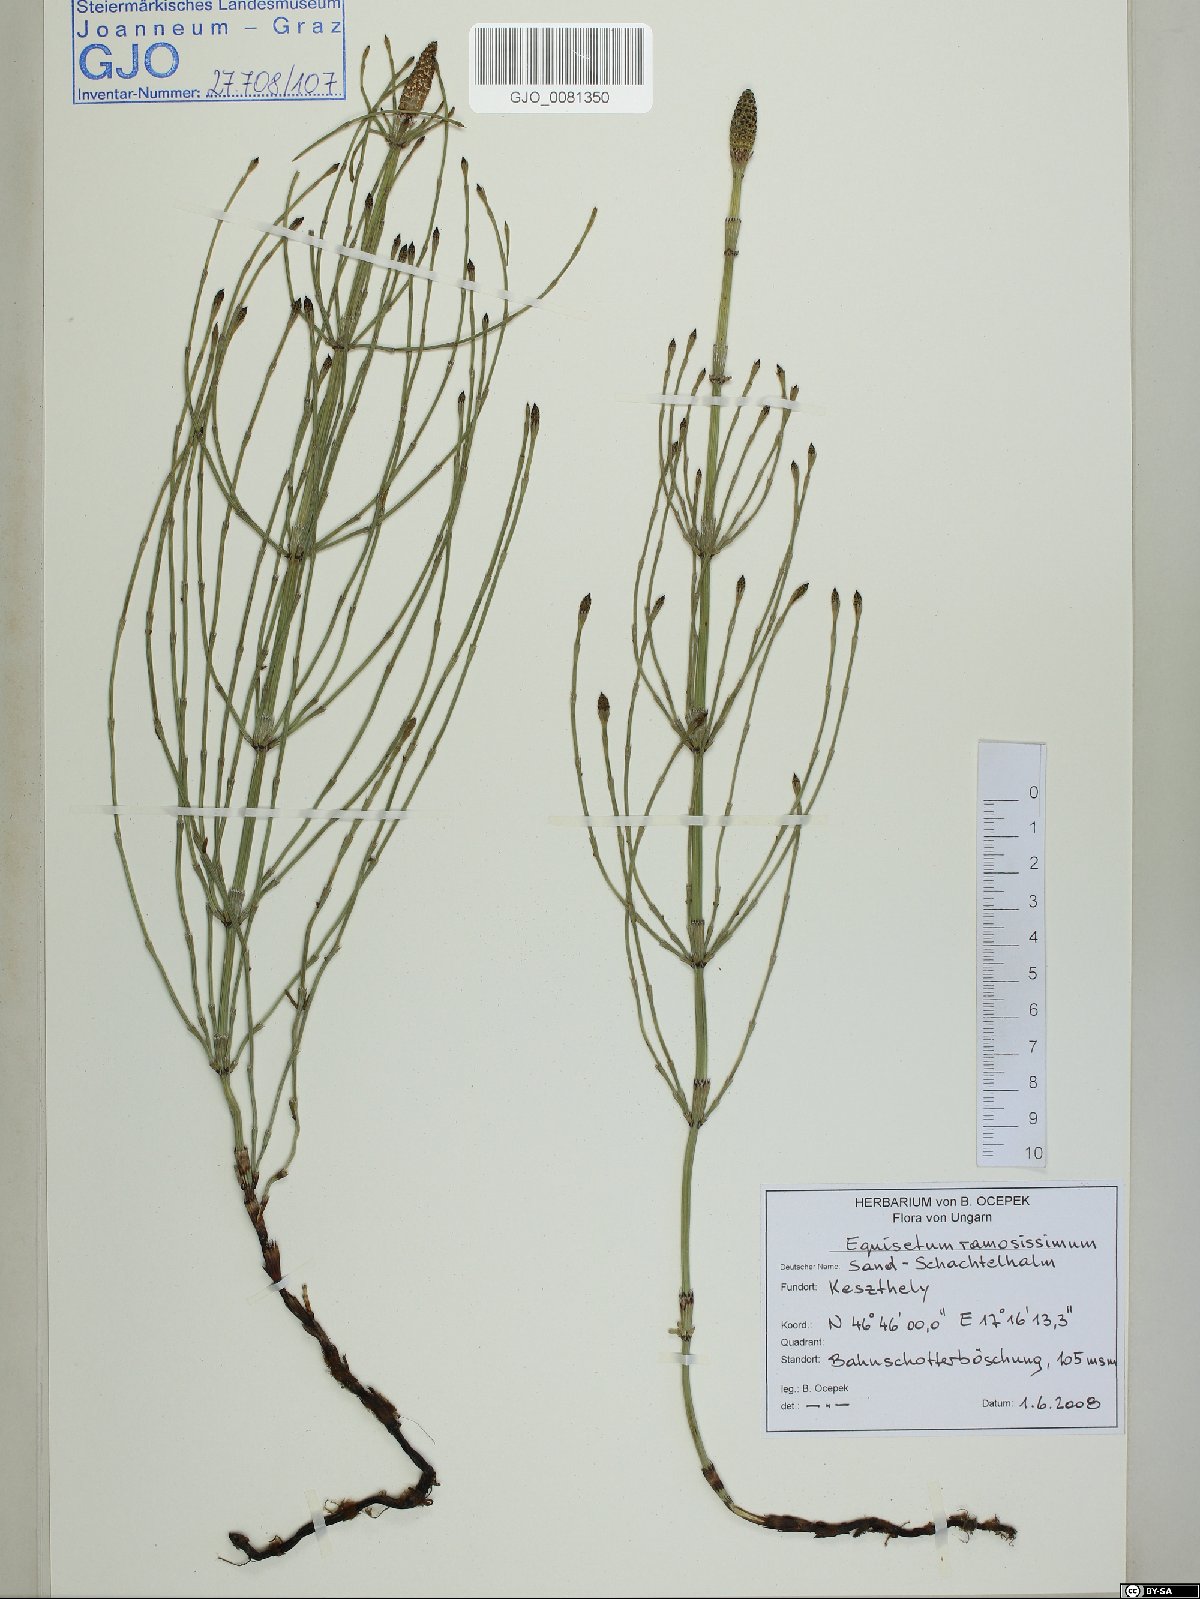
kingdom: Plantae
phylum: Tracheophyta
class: Polypodiopsida
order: Equisetales
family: Equisetaceae
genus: Equisetum
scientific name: Equisetum ramosissimum
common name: Branched horsetail
